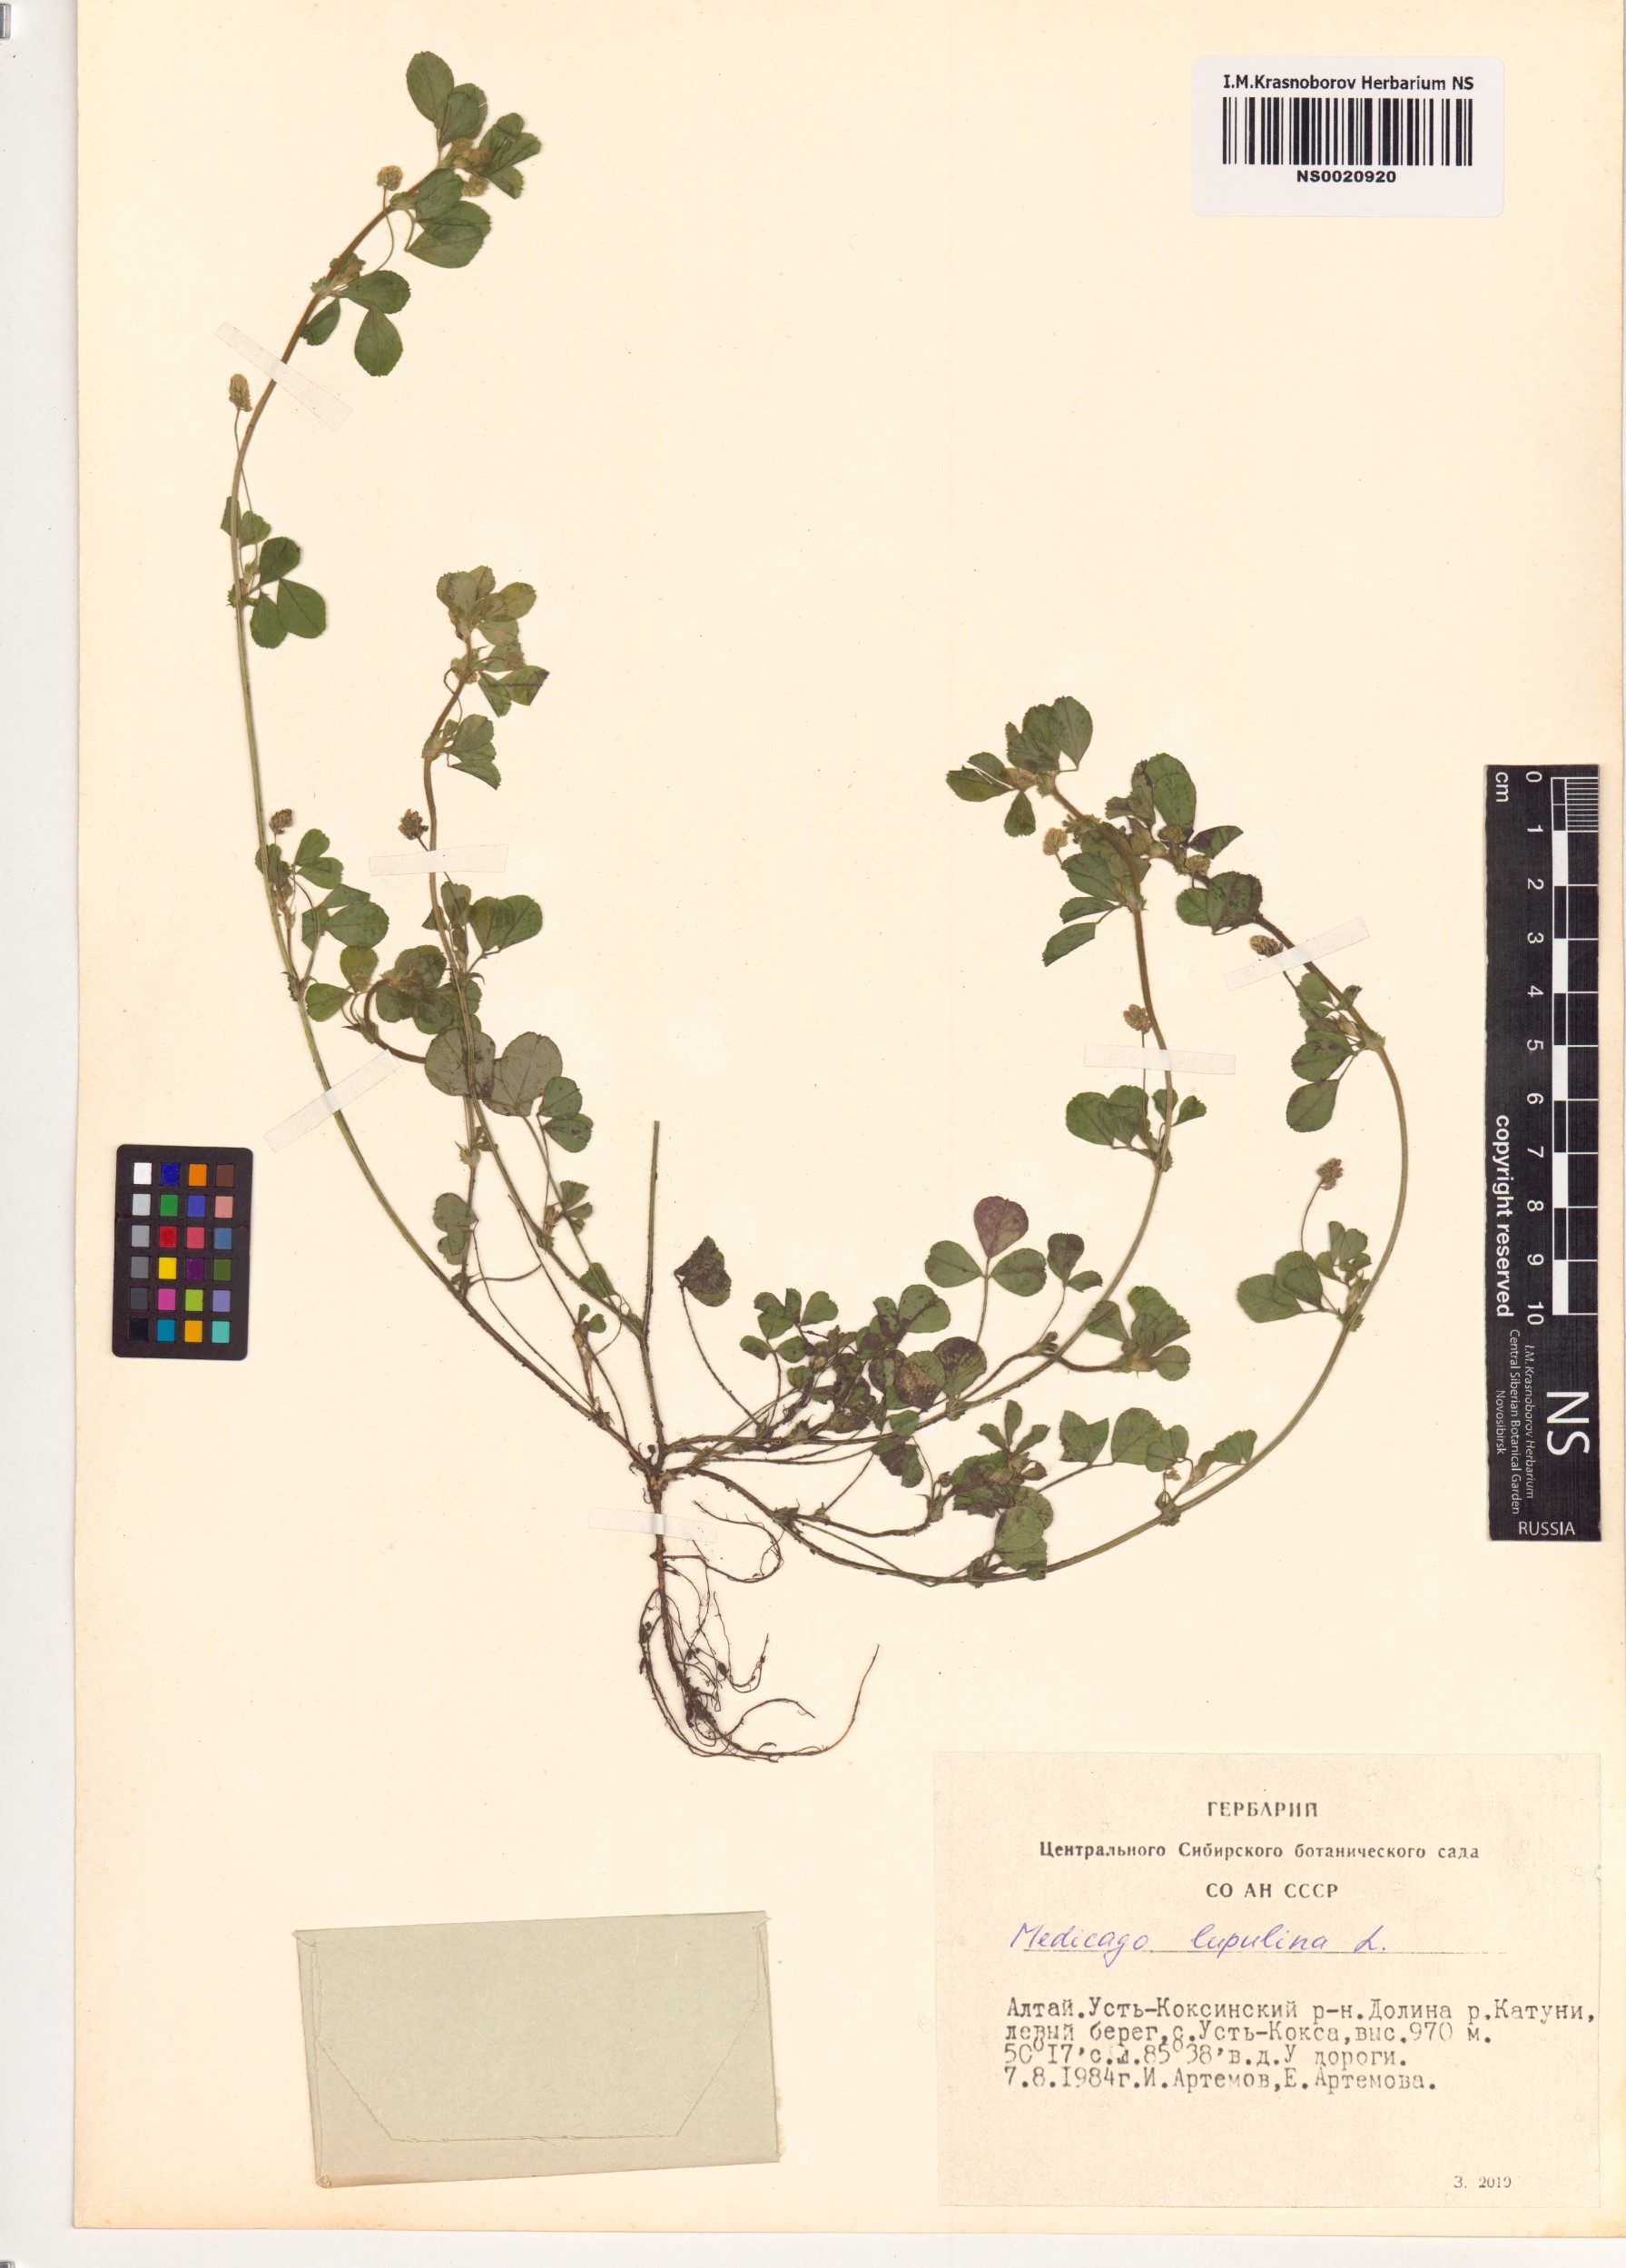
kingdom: Plantae
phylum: Tracheophyta
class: Magnoliopsida
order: Fabales
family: Fabaceae
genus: Medicago
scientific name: Medicago lupulina
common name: Black medick
